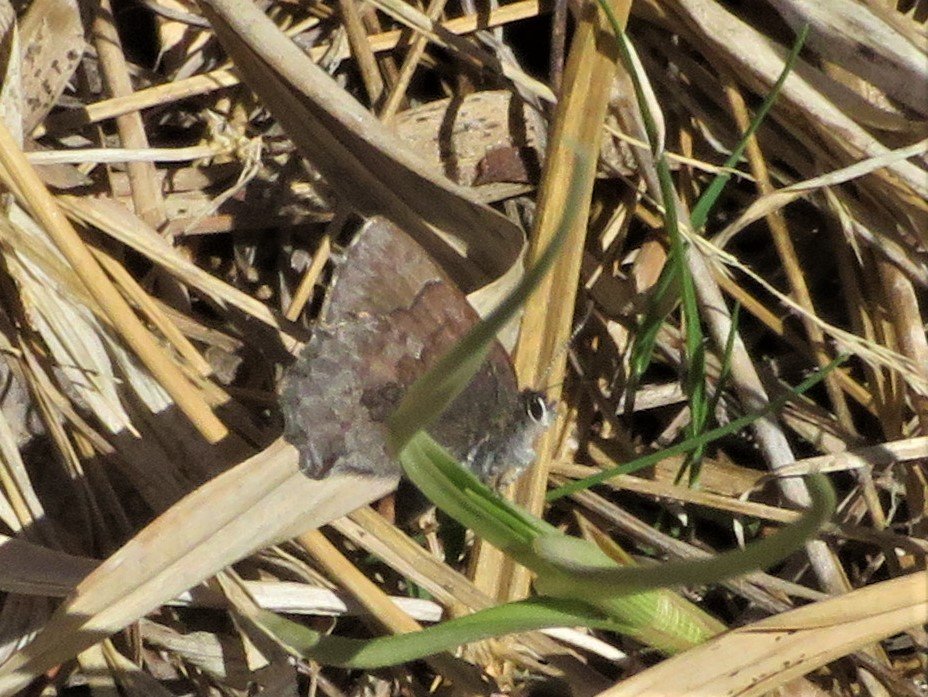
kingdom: Animalia
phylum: Arthropoda
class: Insecta
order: Lepidoptera
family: Lycaenidae
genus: Callophrys
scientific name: Callophrys polios
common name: Hoary Elfin
